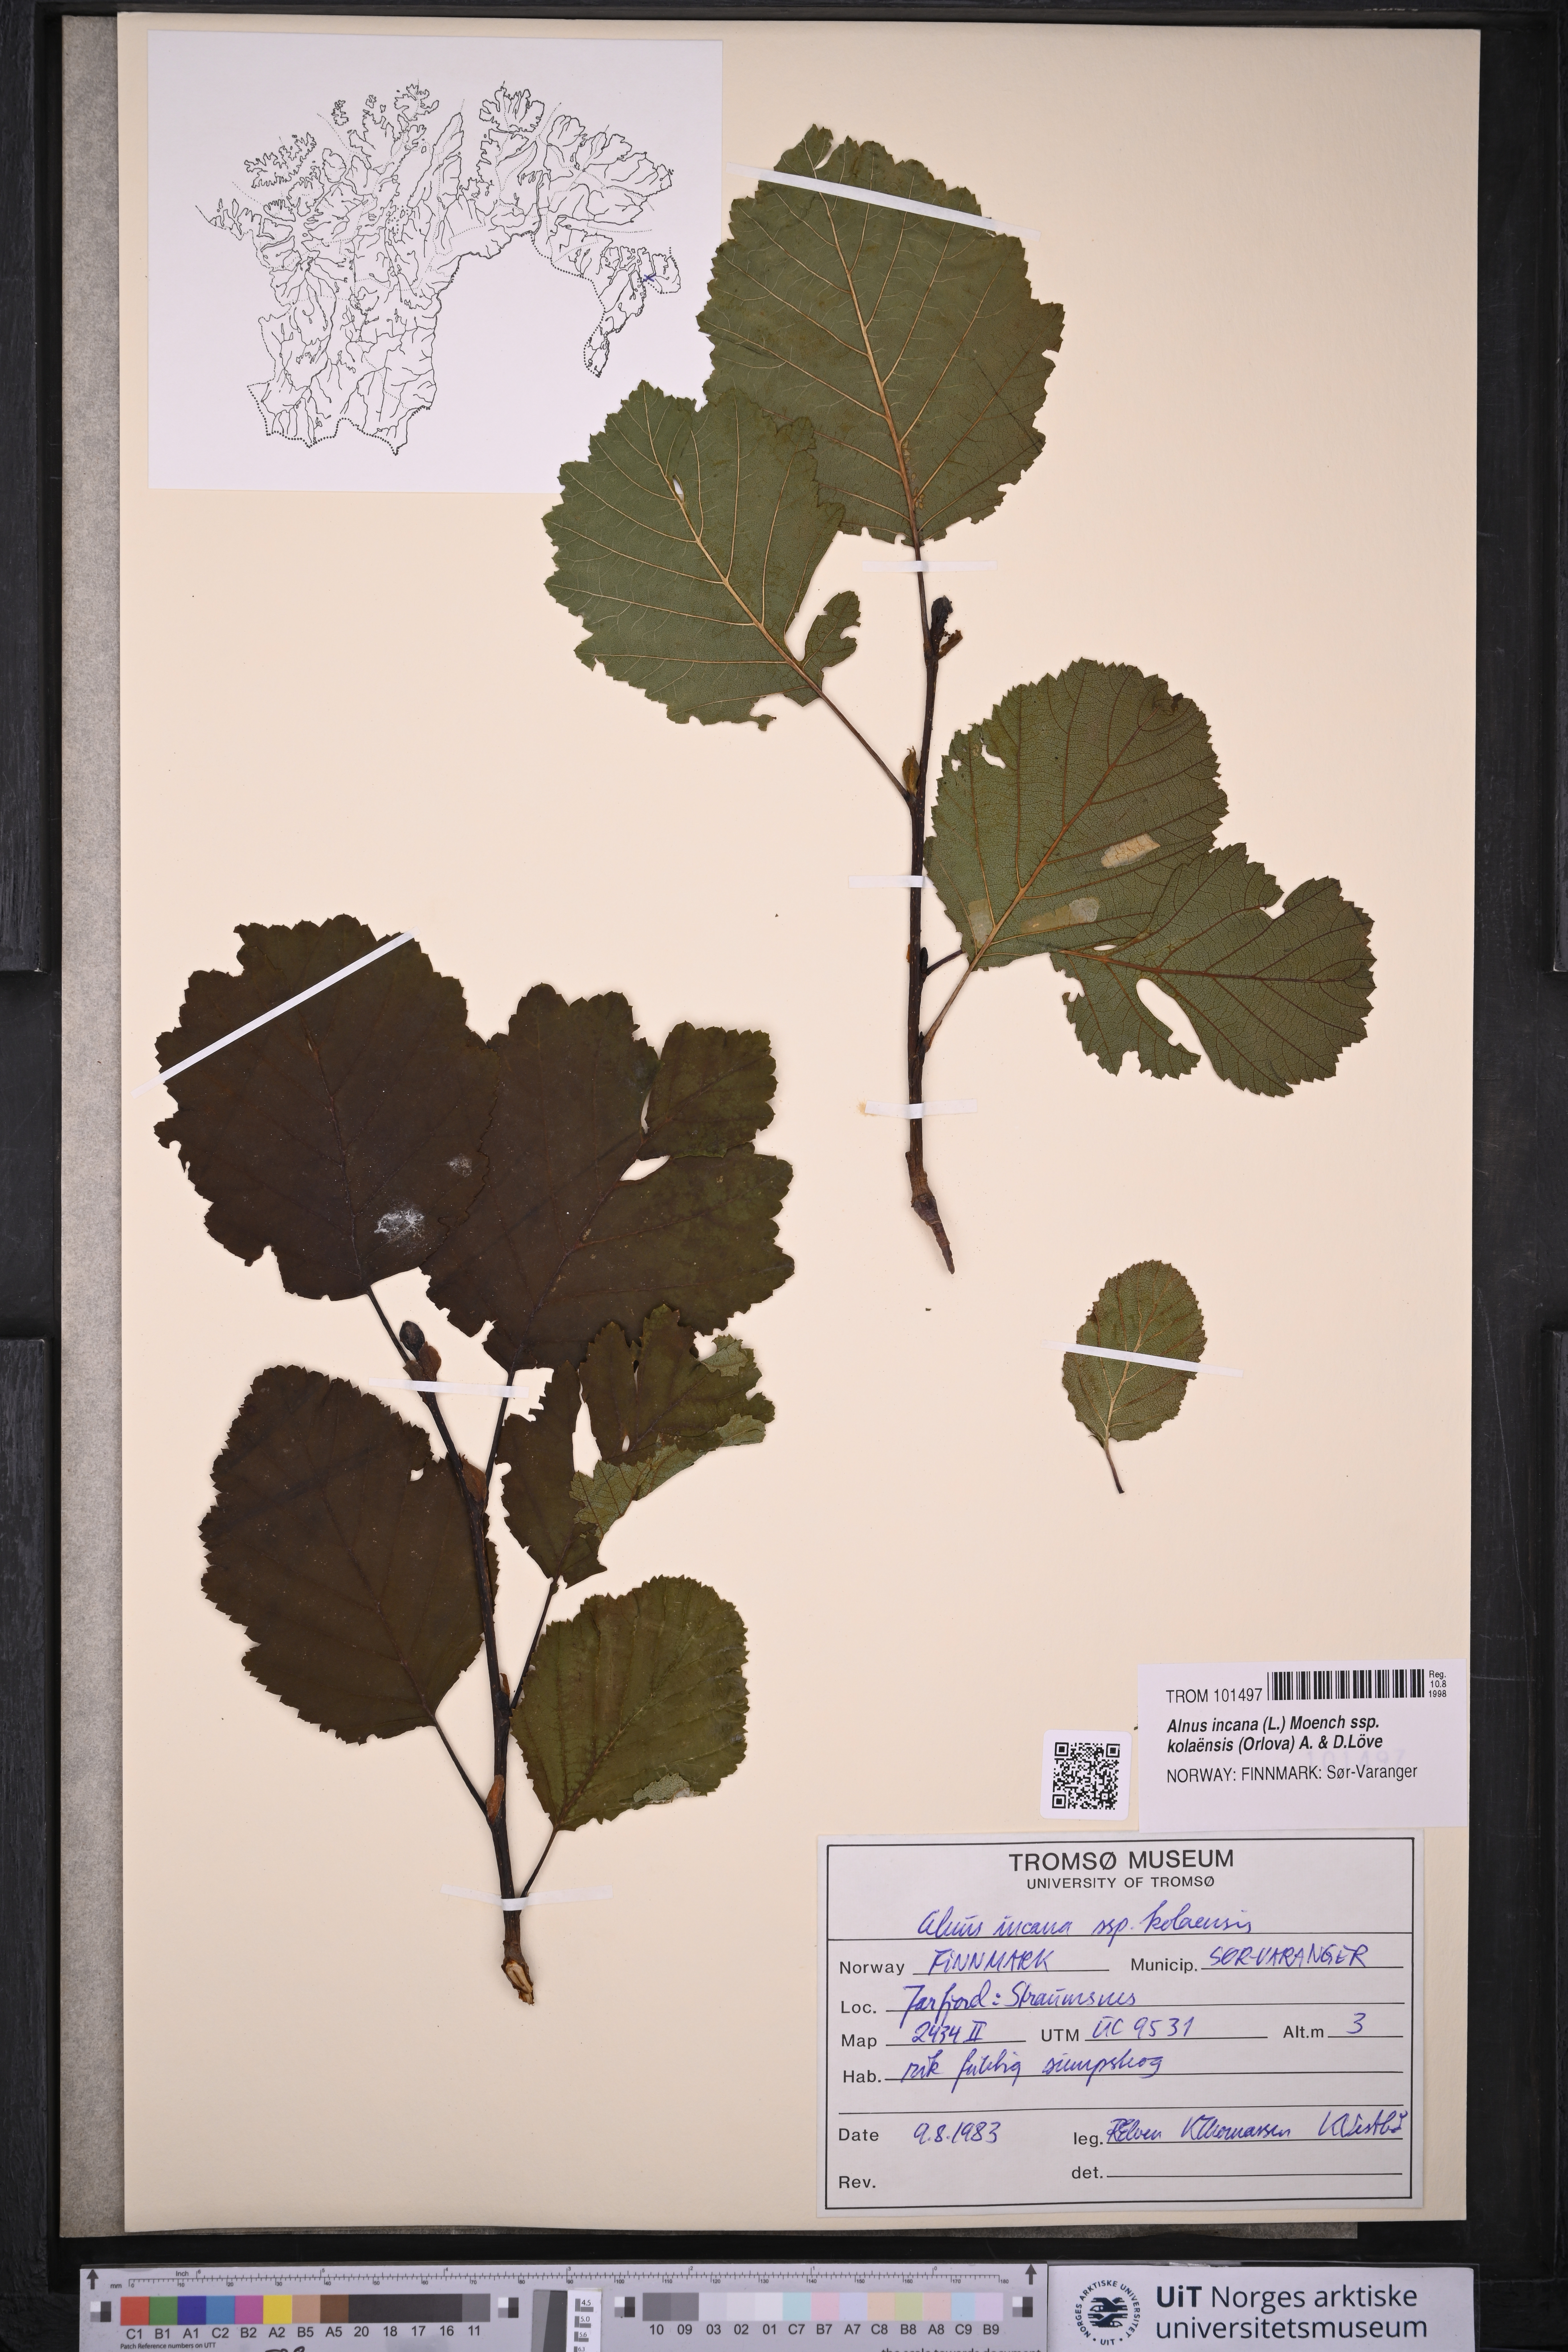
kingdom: Plantae
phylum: Tracheophyta
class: Magnoliopsida
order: Fagales
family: Betulaceae
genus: Alnus
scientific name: Alnus incana
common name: Grey alder
